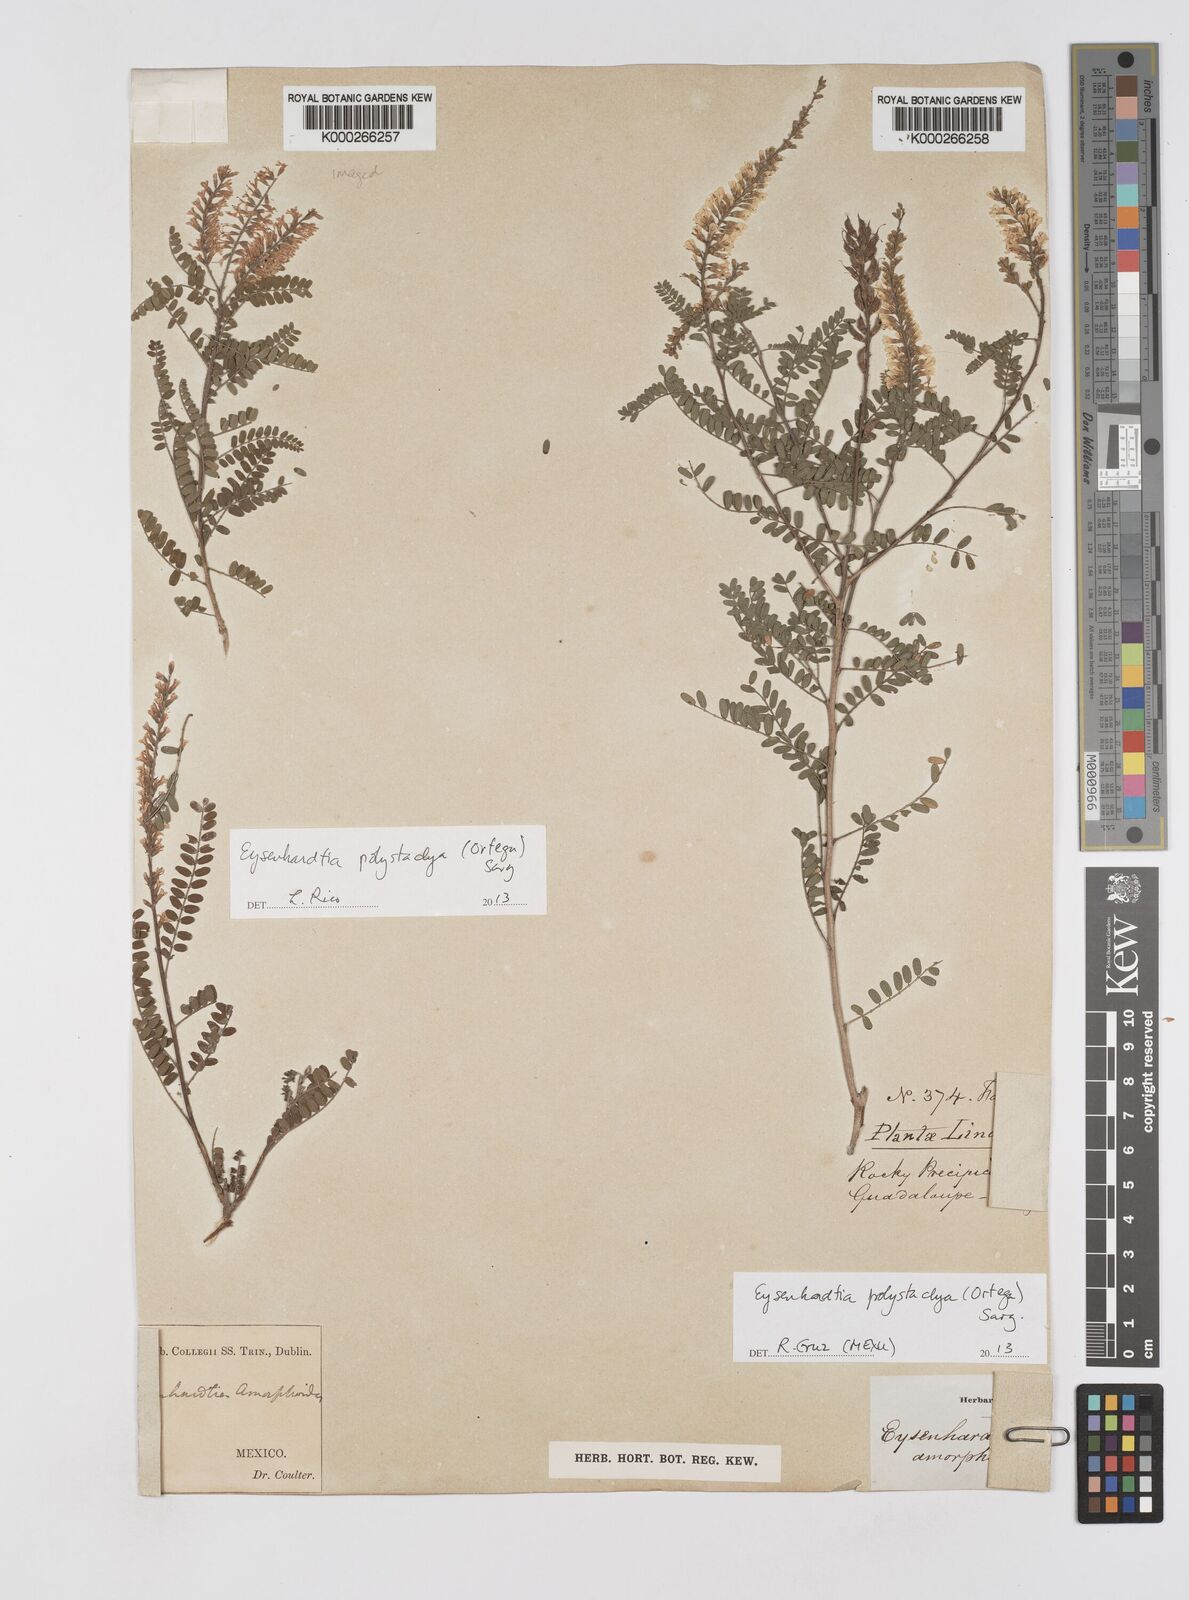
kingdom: Plantae
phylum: Tracheophyta
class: Magnoliopsida
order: Fabales
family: Fabaceae
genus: Eysenhardtia
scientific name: Eysenhardtia polystachya
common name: Kidneywood
